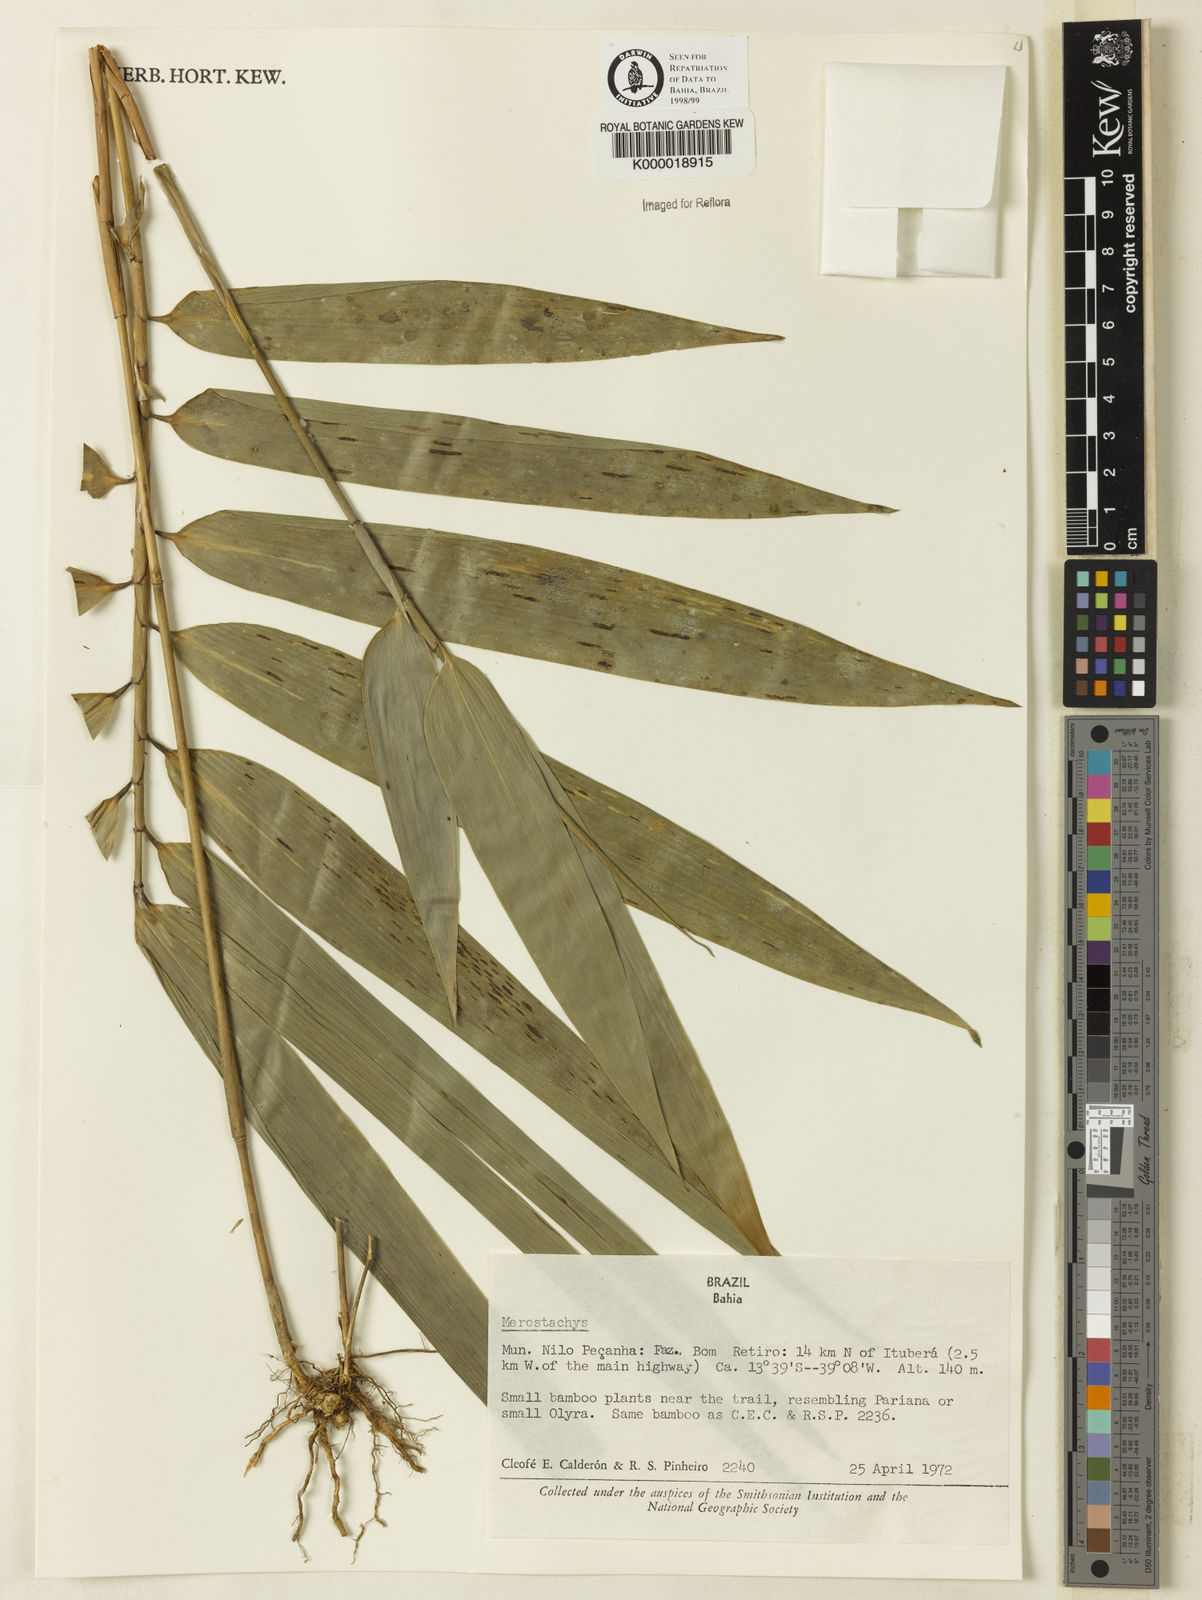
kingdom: Plantae
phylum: Tracheophyta
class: Liliopsida
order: Poales
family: Poaceae
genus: Merostachys
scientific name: Merostachys
